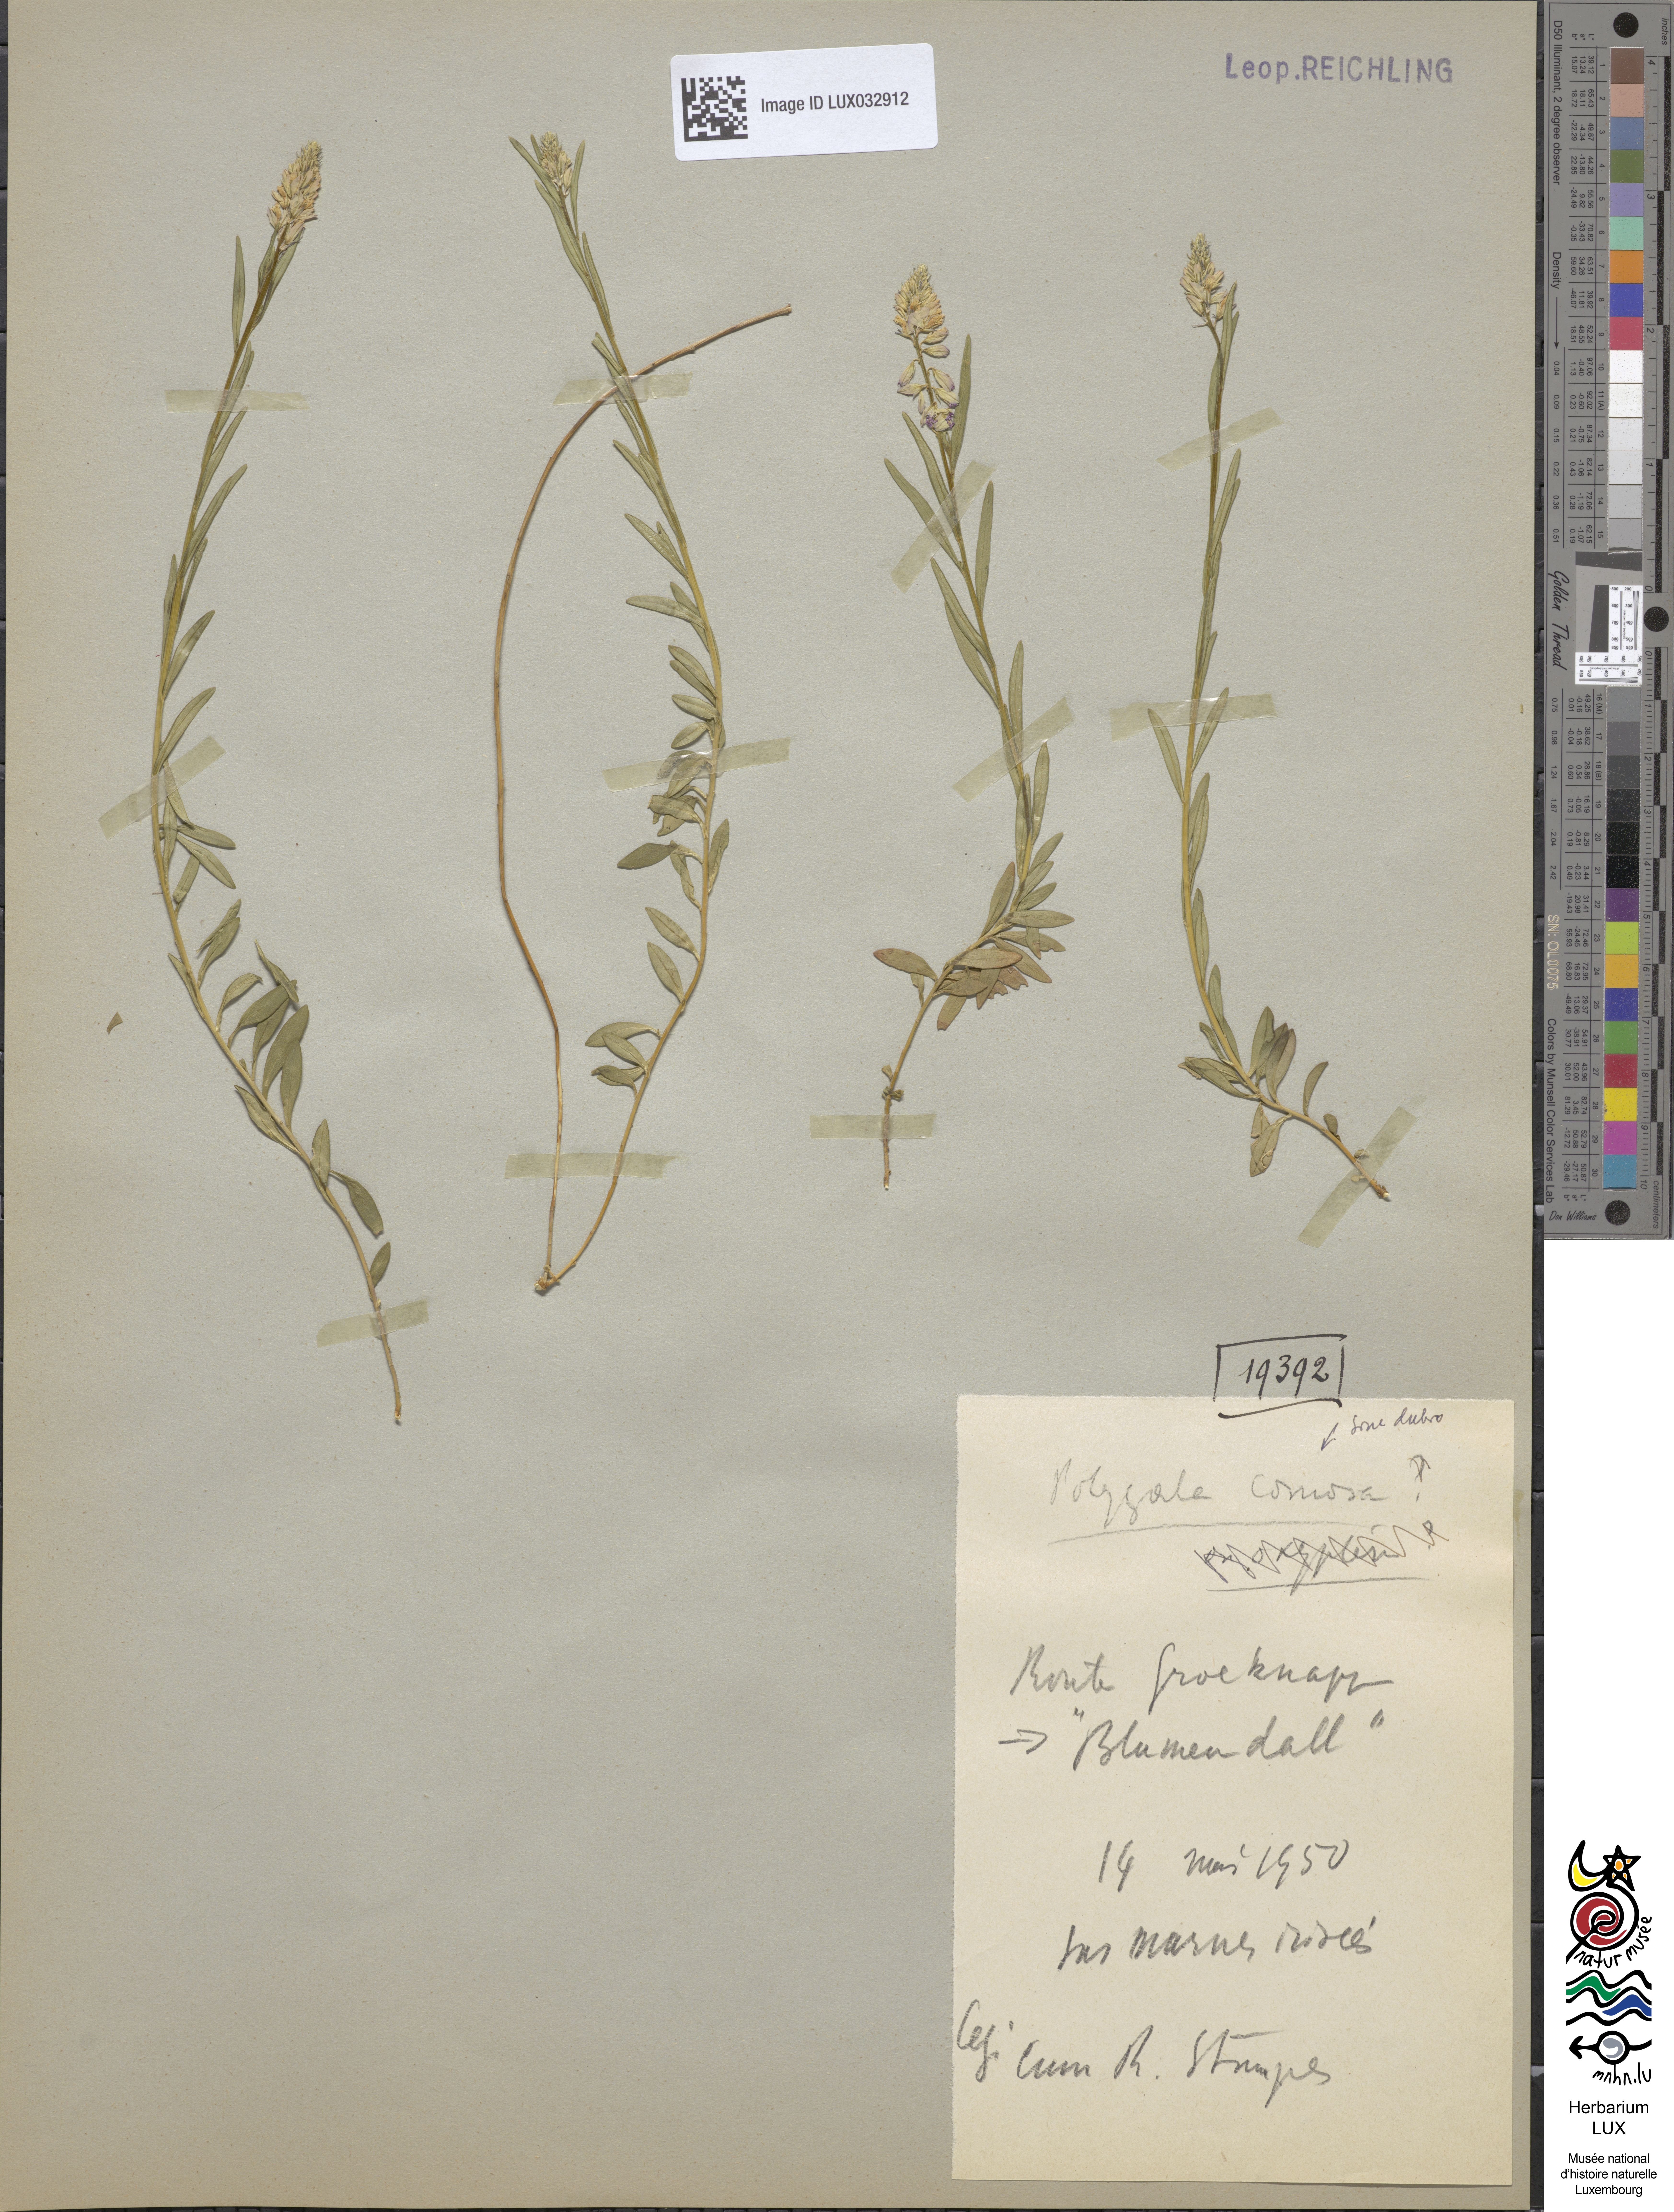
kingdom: Plantae
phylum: Tracheophyta
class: Magnoliopsida
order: Fabales
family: Polygalaceae
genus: Polygala
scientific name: Polygala comosa
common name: Tufted milkwort
